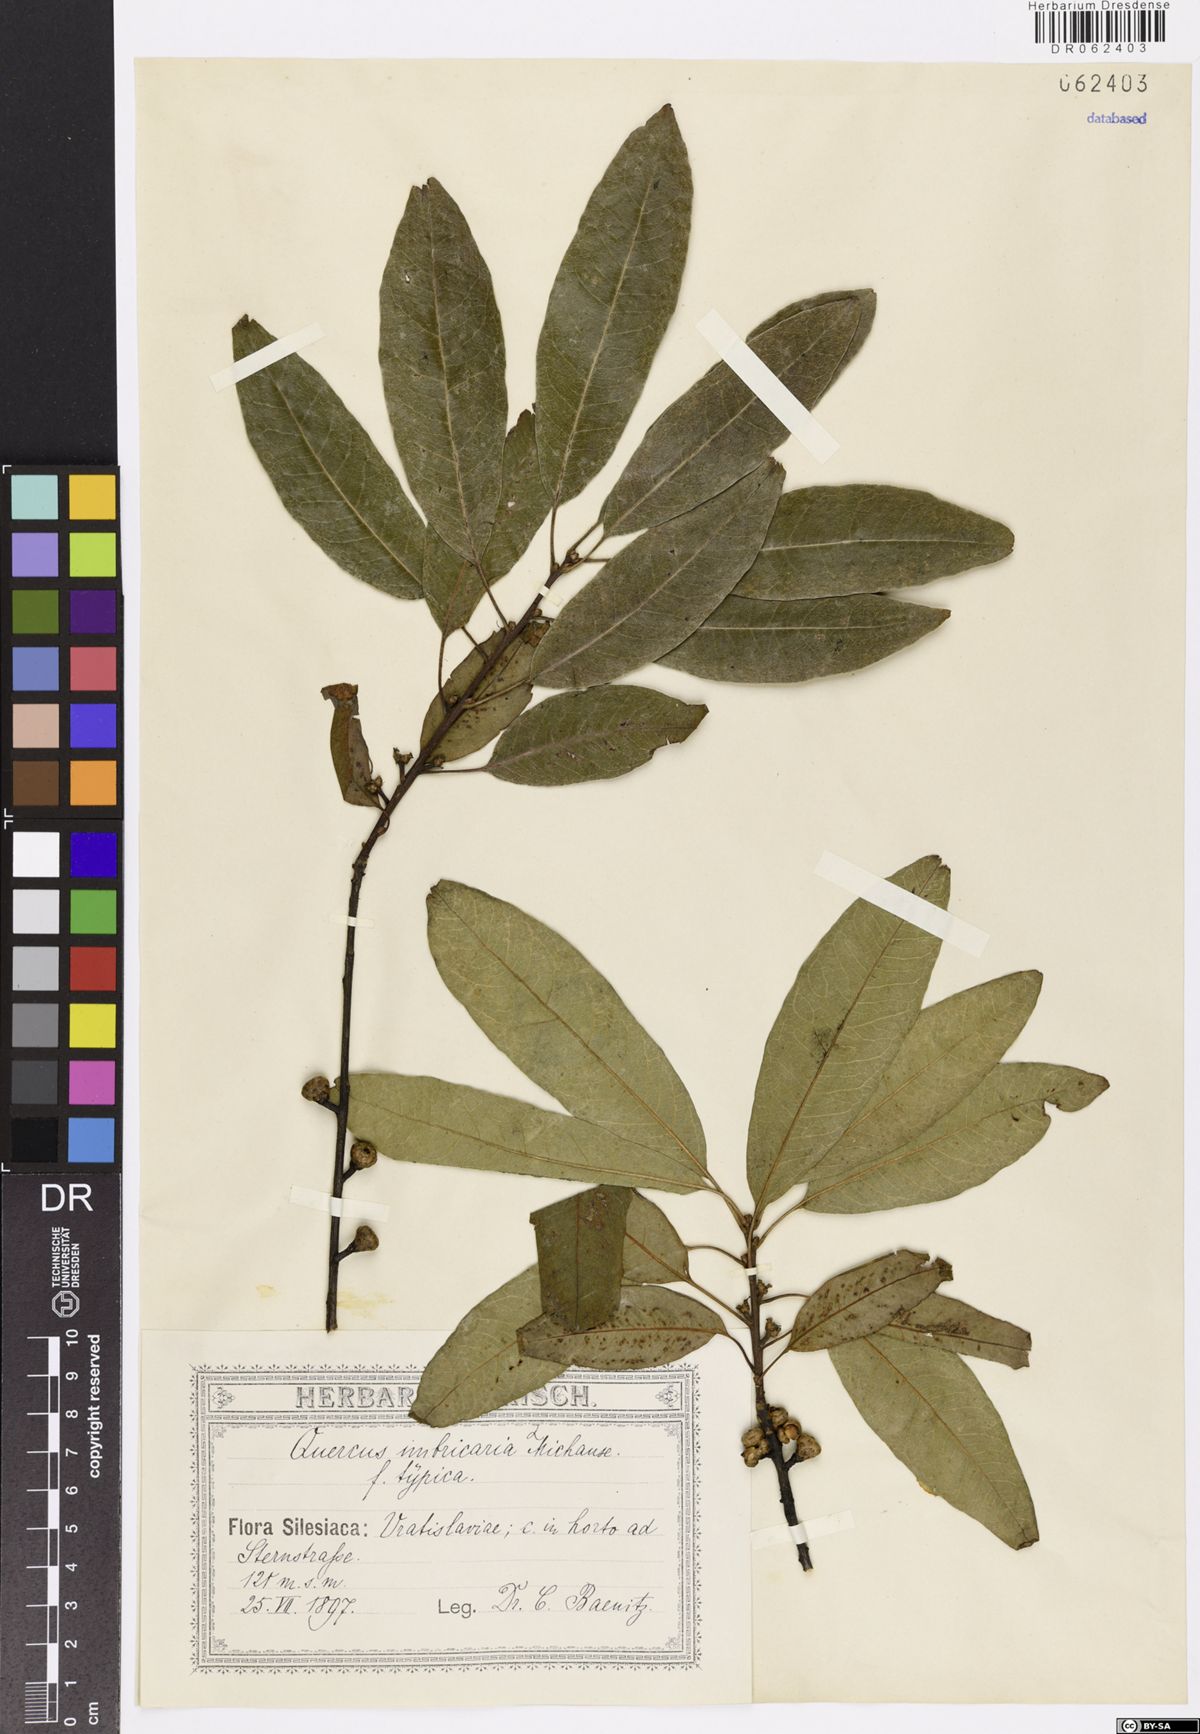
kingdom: Plantae
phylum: Tracheophyta
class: Magnoliopsida
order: Fagales
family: Fagaceae
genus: Quercus
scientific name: Quercus imbricaria
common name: Shingle oak
